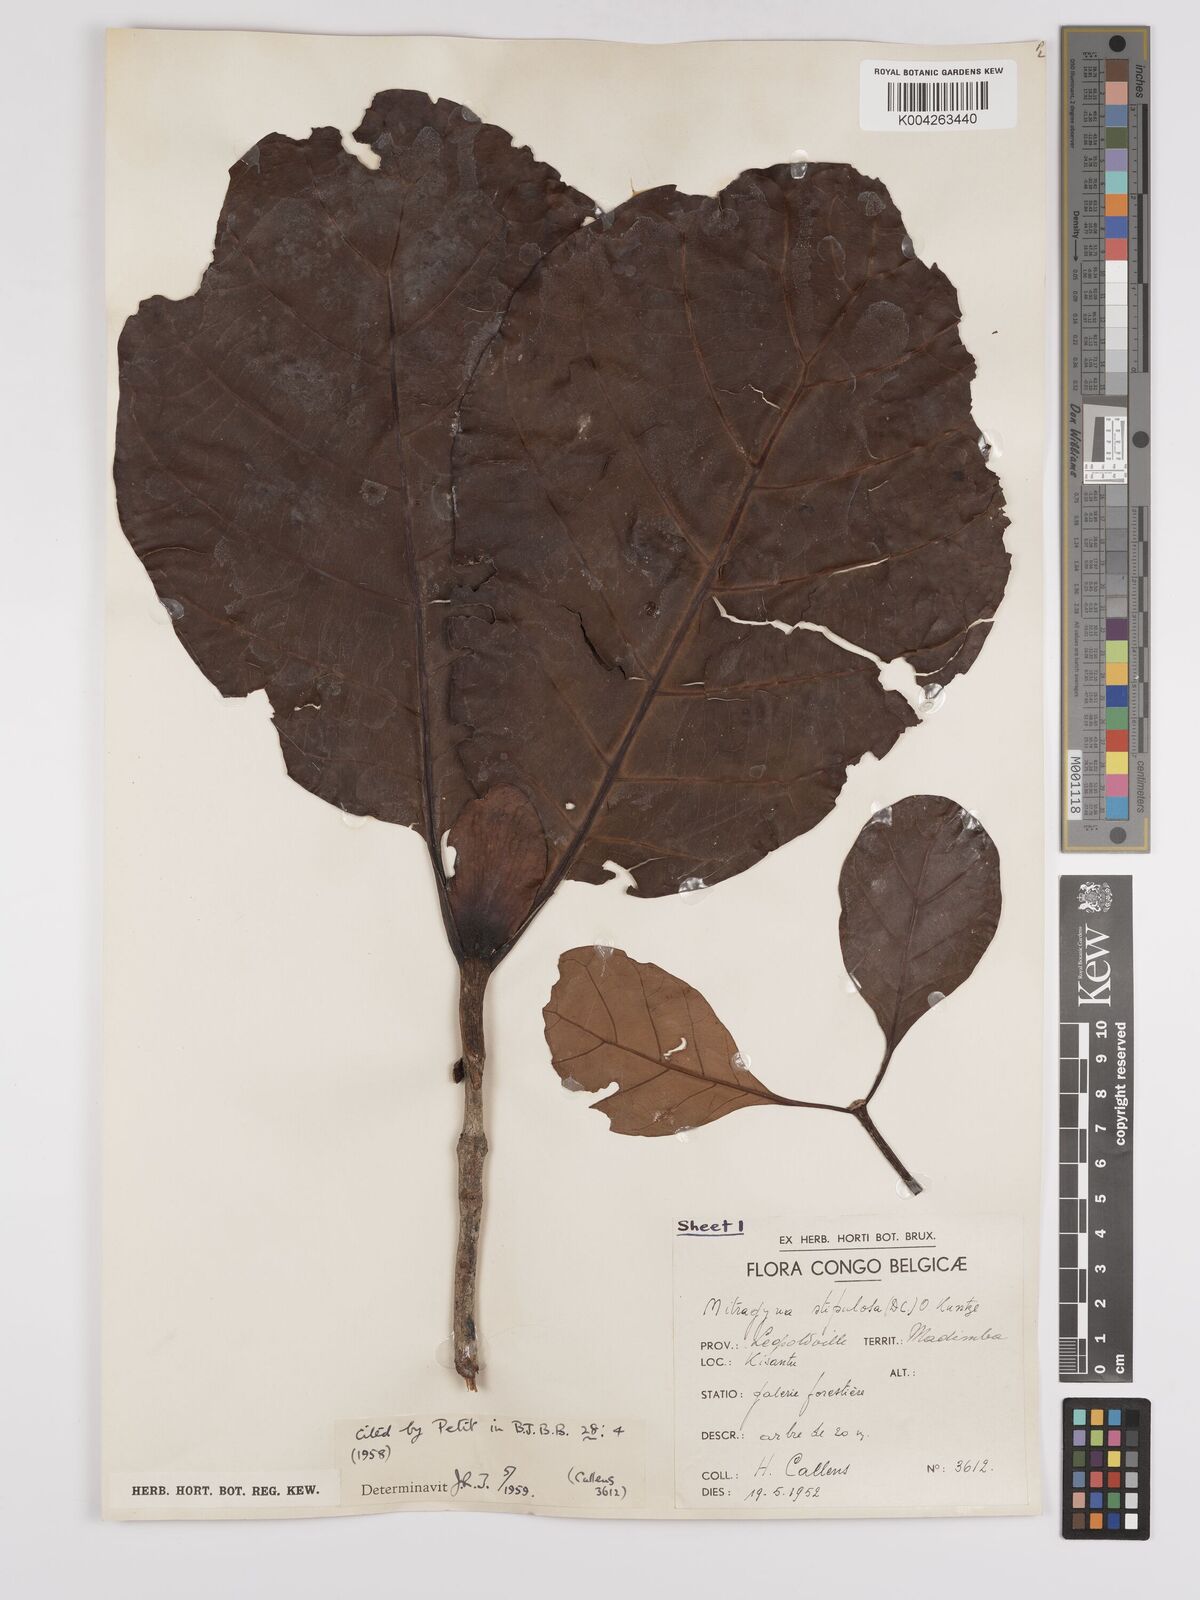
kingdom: Plantae
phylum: Tracheophyta
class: Magnoliopsida
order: Gentianales
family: Rubiaceae
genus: Mitragyna
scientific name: Mitragyna stipulosa
